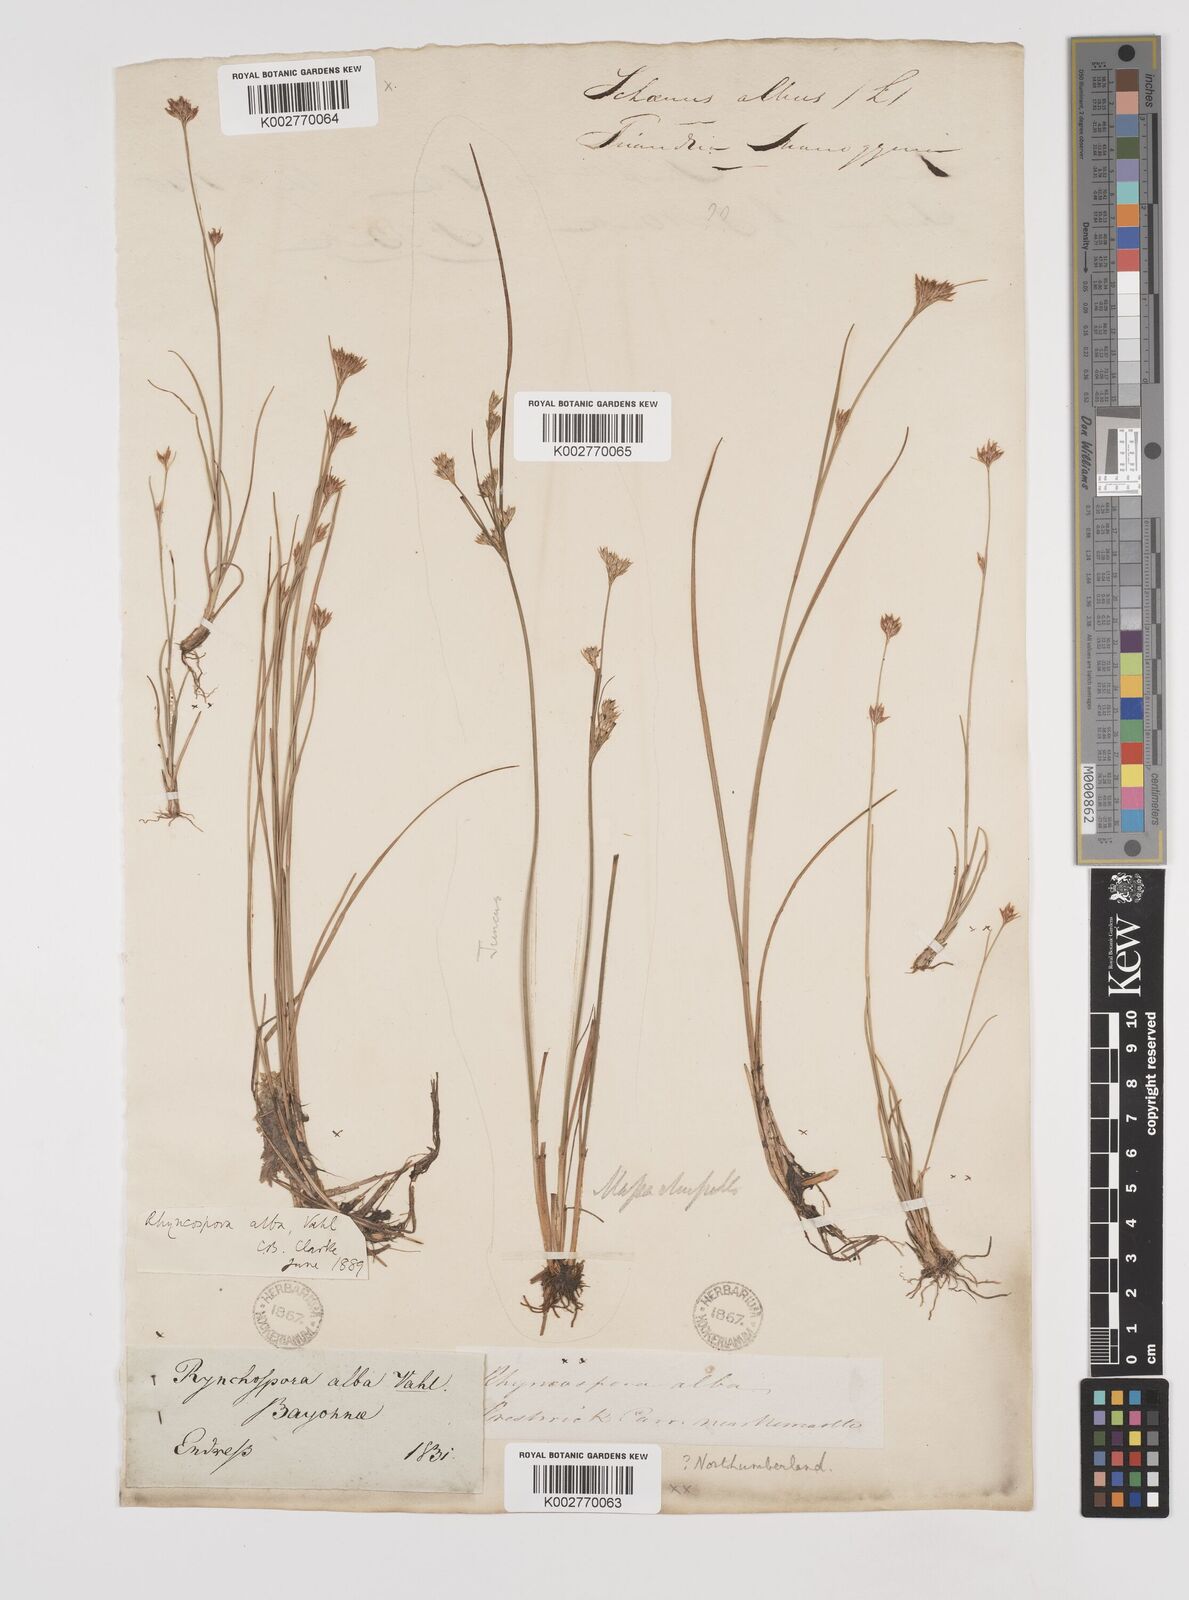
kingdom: Plantae
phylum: Tracheophyta
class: Liliopsida
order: Poales
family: Cyperaceae
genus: Rhynchospora
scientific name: Rhynchospora alba
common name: White beak-sedge
